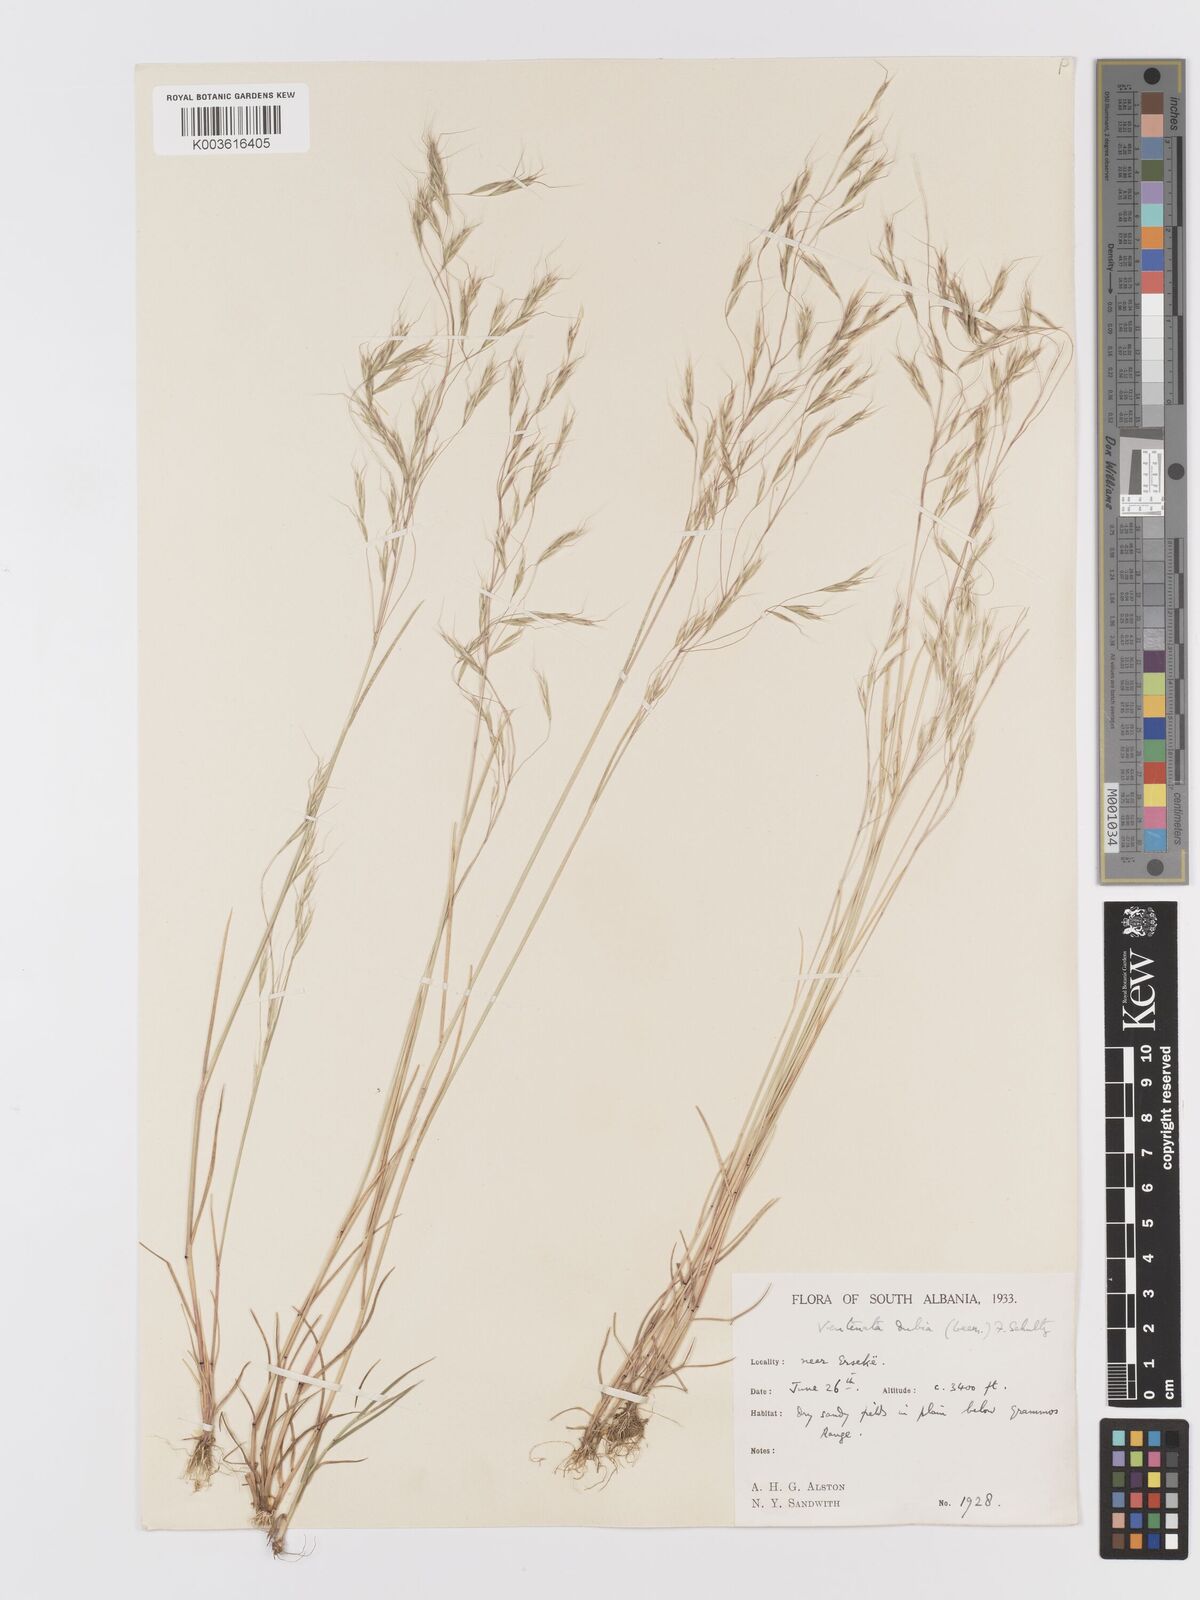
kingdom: Plantae
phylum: Tracheophyta
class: Liliopsida
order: Poales
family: Poaceae
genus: Ventenata
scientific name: Ventenata dubia
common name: North africa grass
